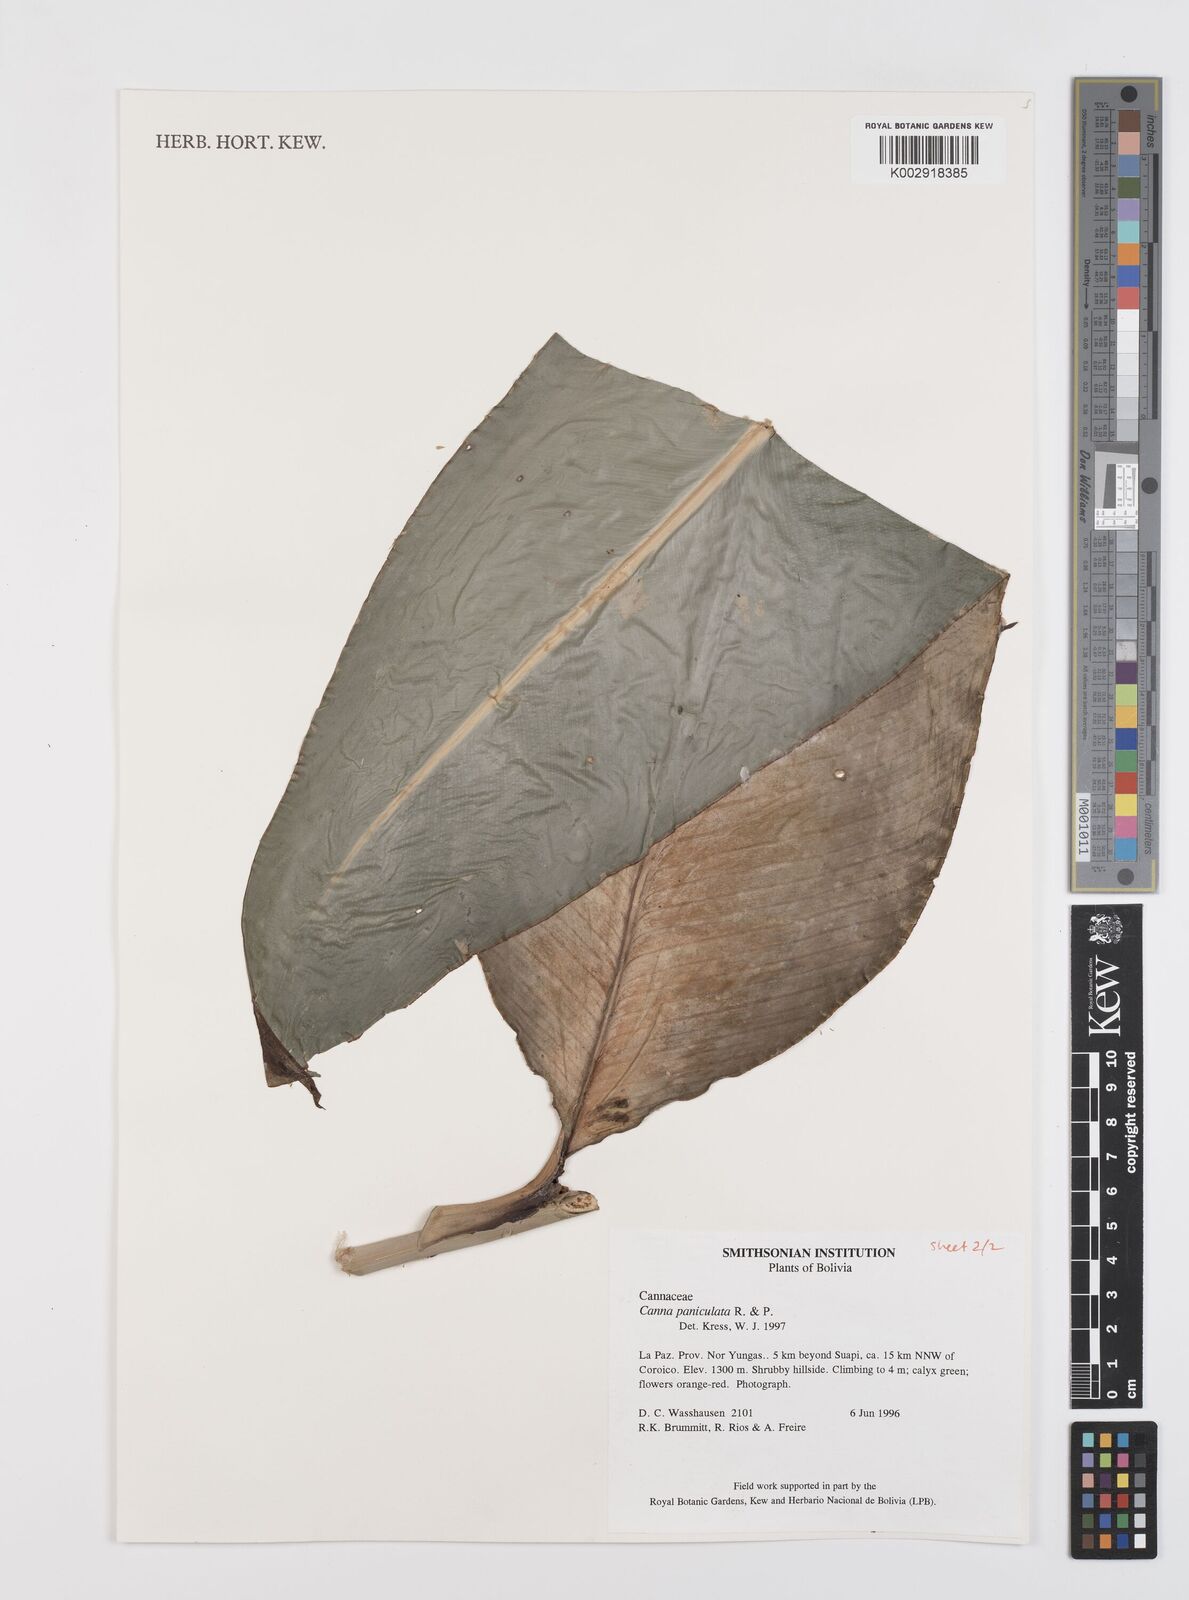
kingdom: Plantae
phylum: Tracheophyta
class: Liliopsida
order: Zingiberales
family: Cannaceae
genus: Canna
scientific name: Canna paniculata
